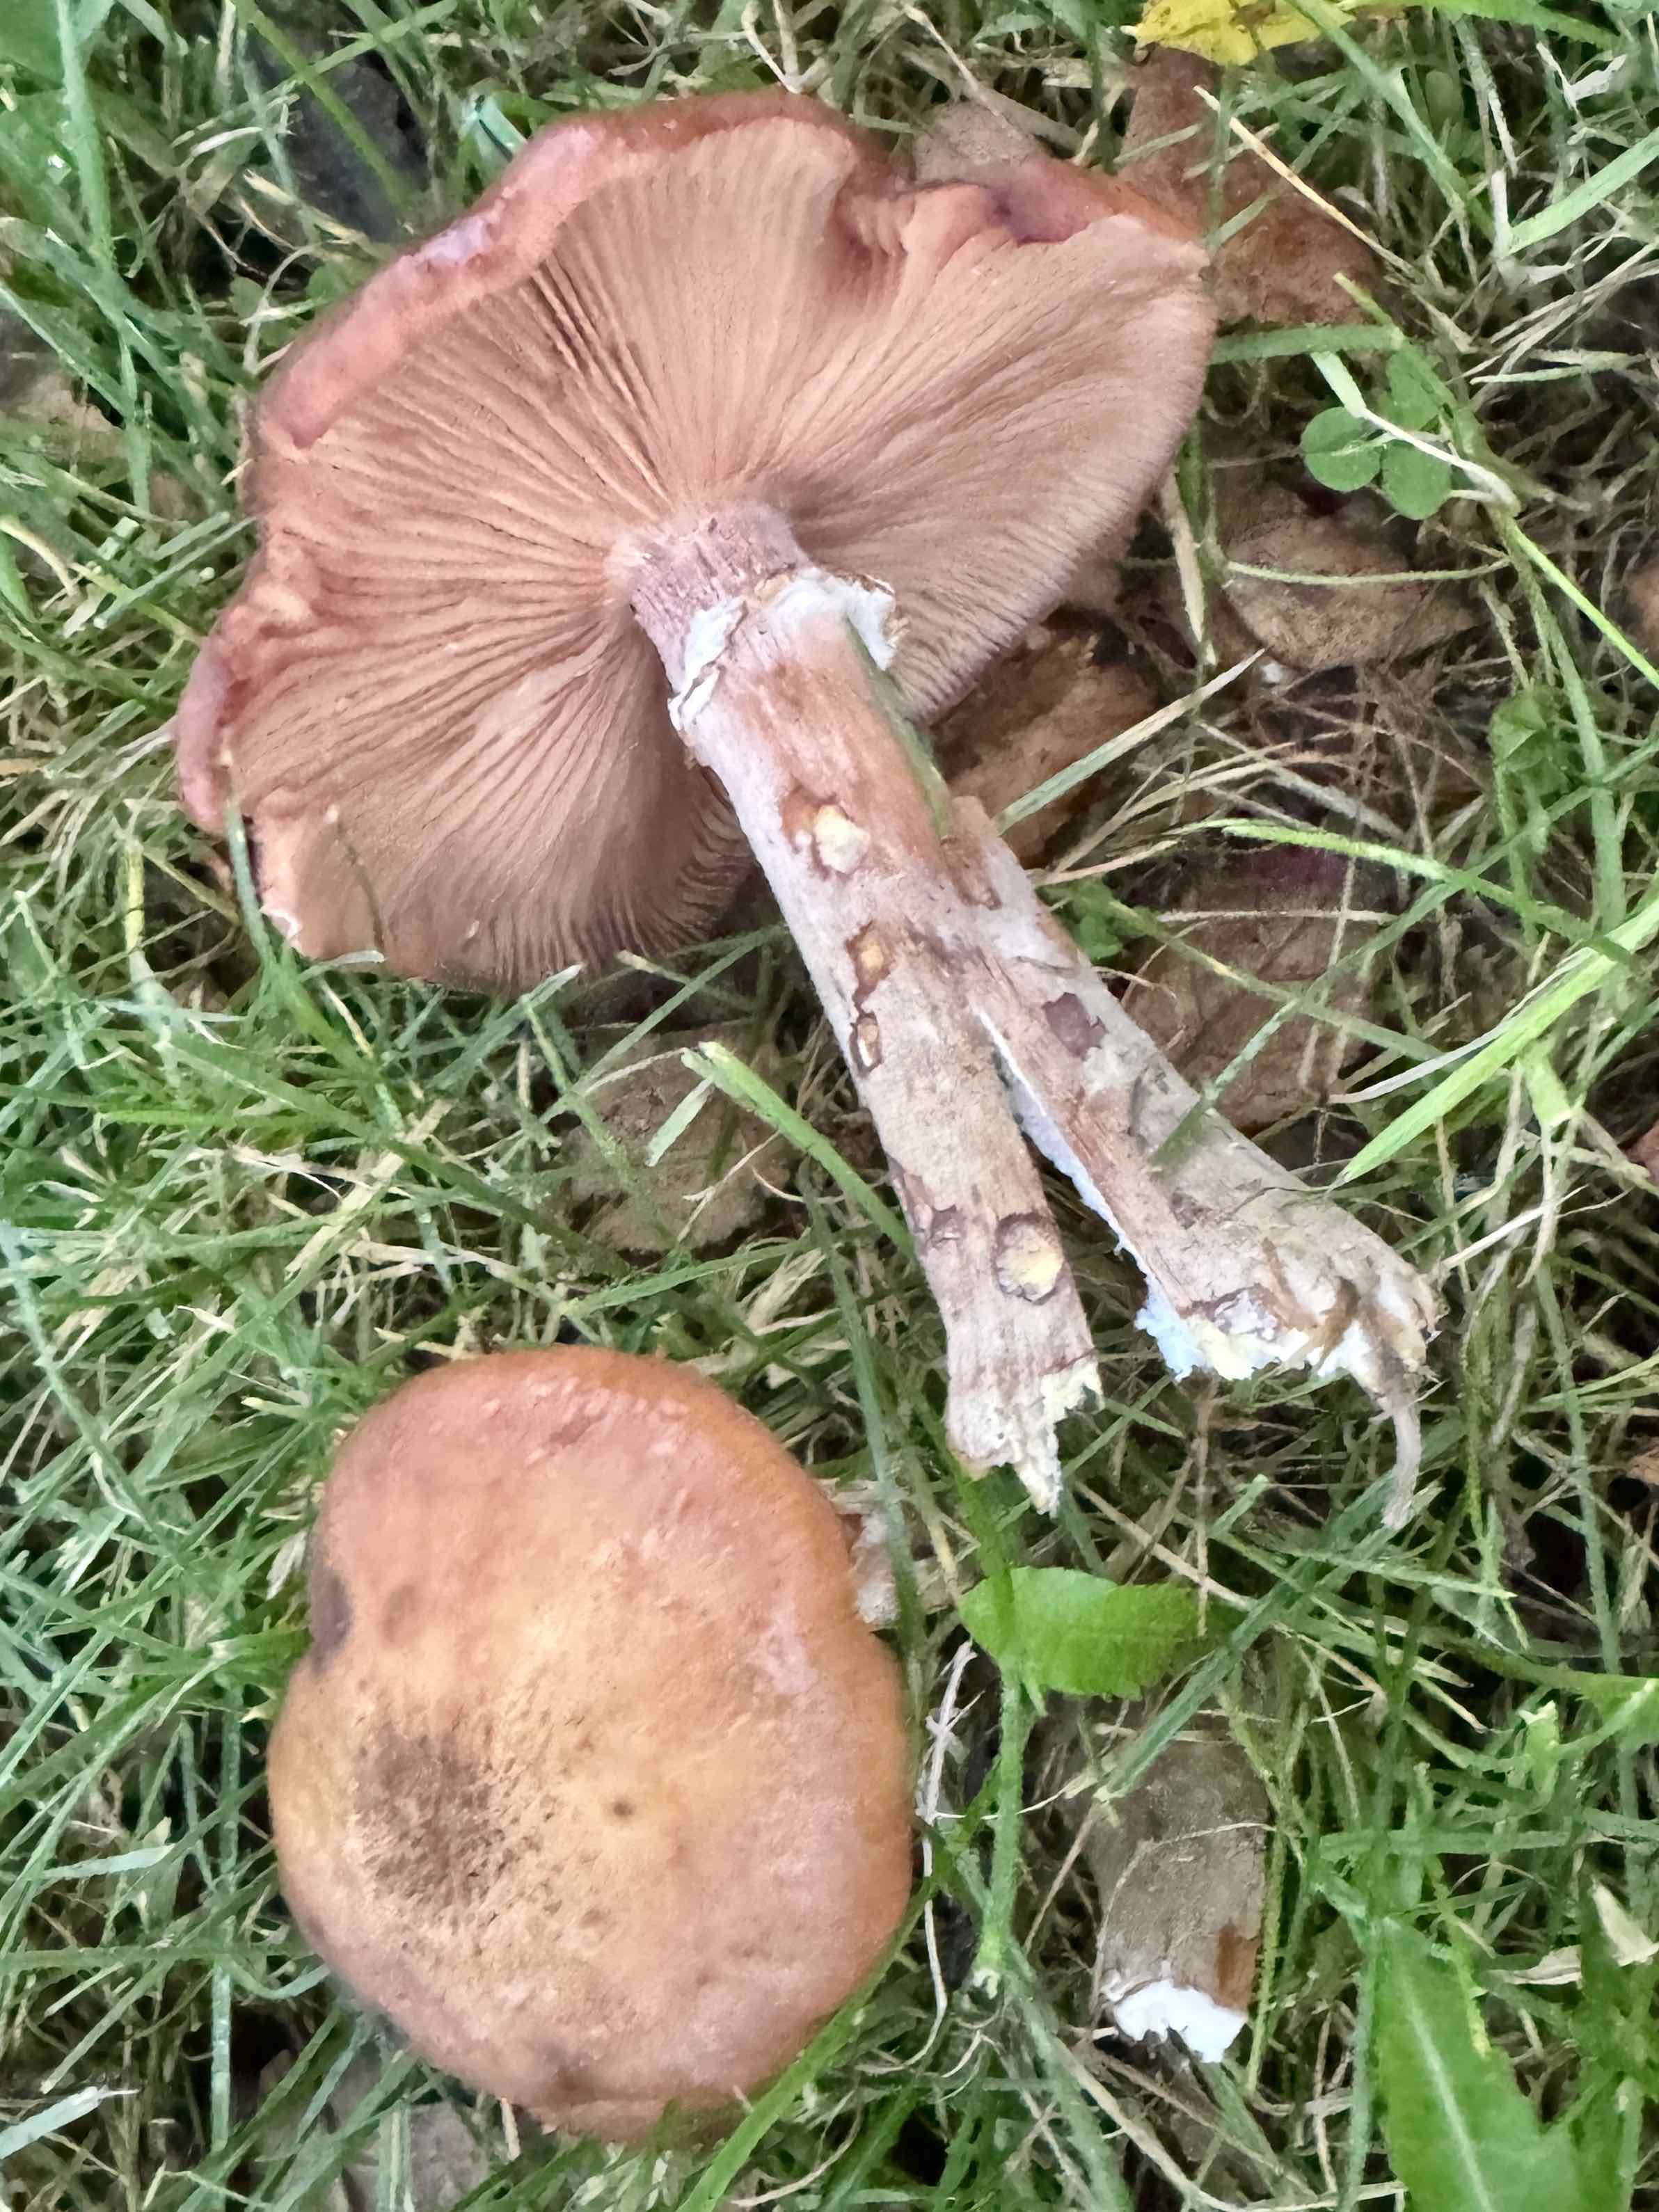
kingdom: Fungi
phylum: Basidiomycota
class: Agaricomycetes
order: Agaricales
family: Physalacriaceae
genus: Armillaria
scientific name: Armillaria lutea
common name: køllestokket honningsvamp
